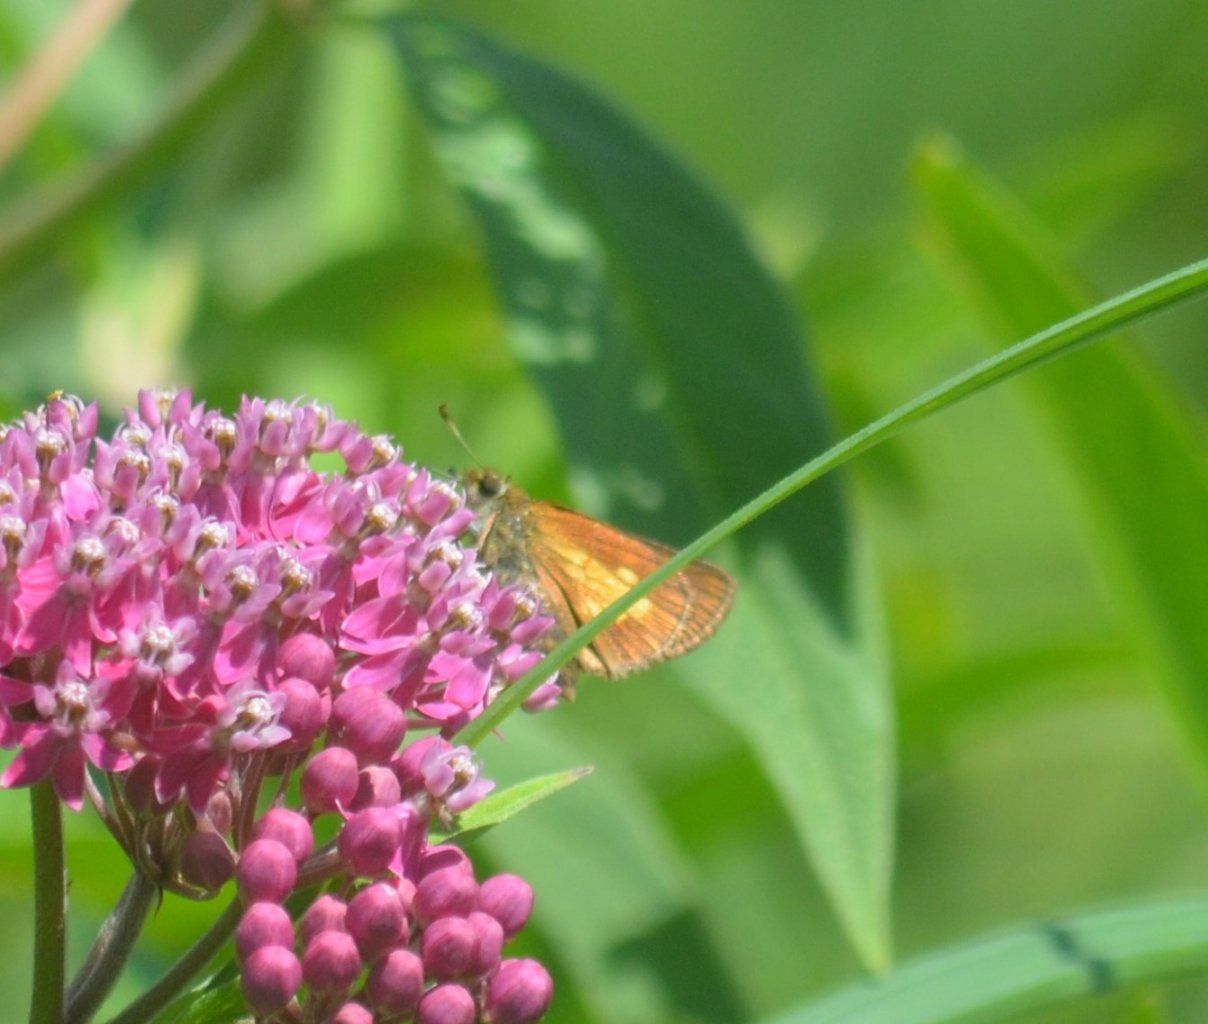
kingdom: Animalia
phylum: Arthropoda
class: Insecta
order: Lepidoptera
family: Hesperiidae
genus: Poanes
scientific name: Poanes massasoit
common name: Mulberry Wing
